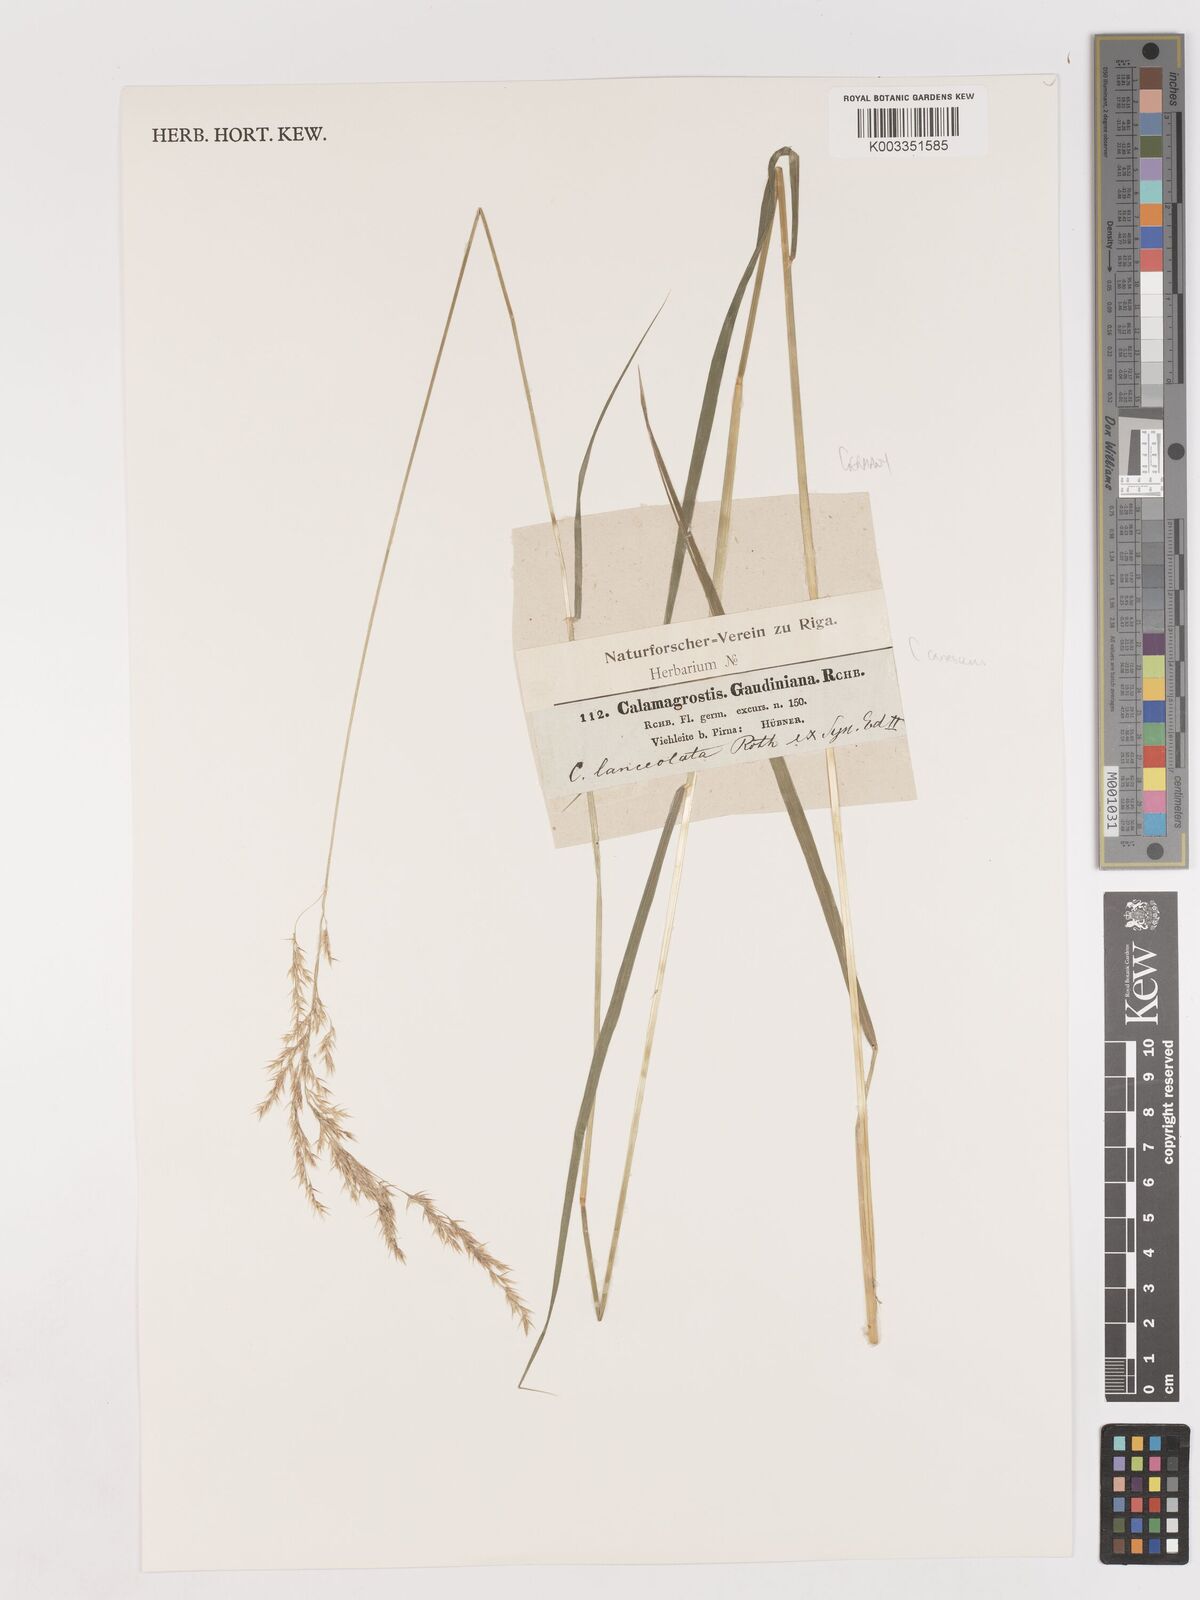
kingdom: Plantae
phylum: Tracheophyta
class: Liliopsida
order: Poales
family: Poaceae
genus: Calamagrostis
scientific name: Calamagrostis canescens
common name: Purple small-reed
